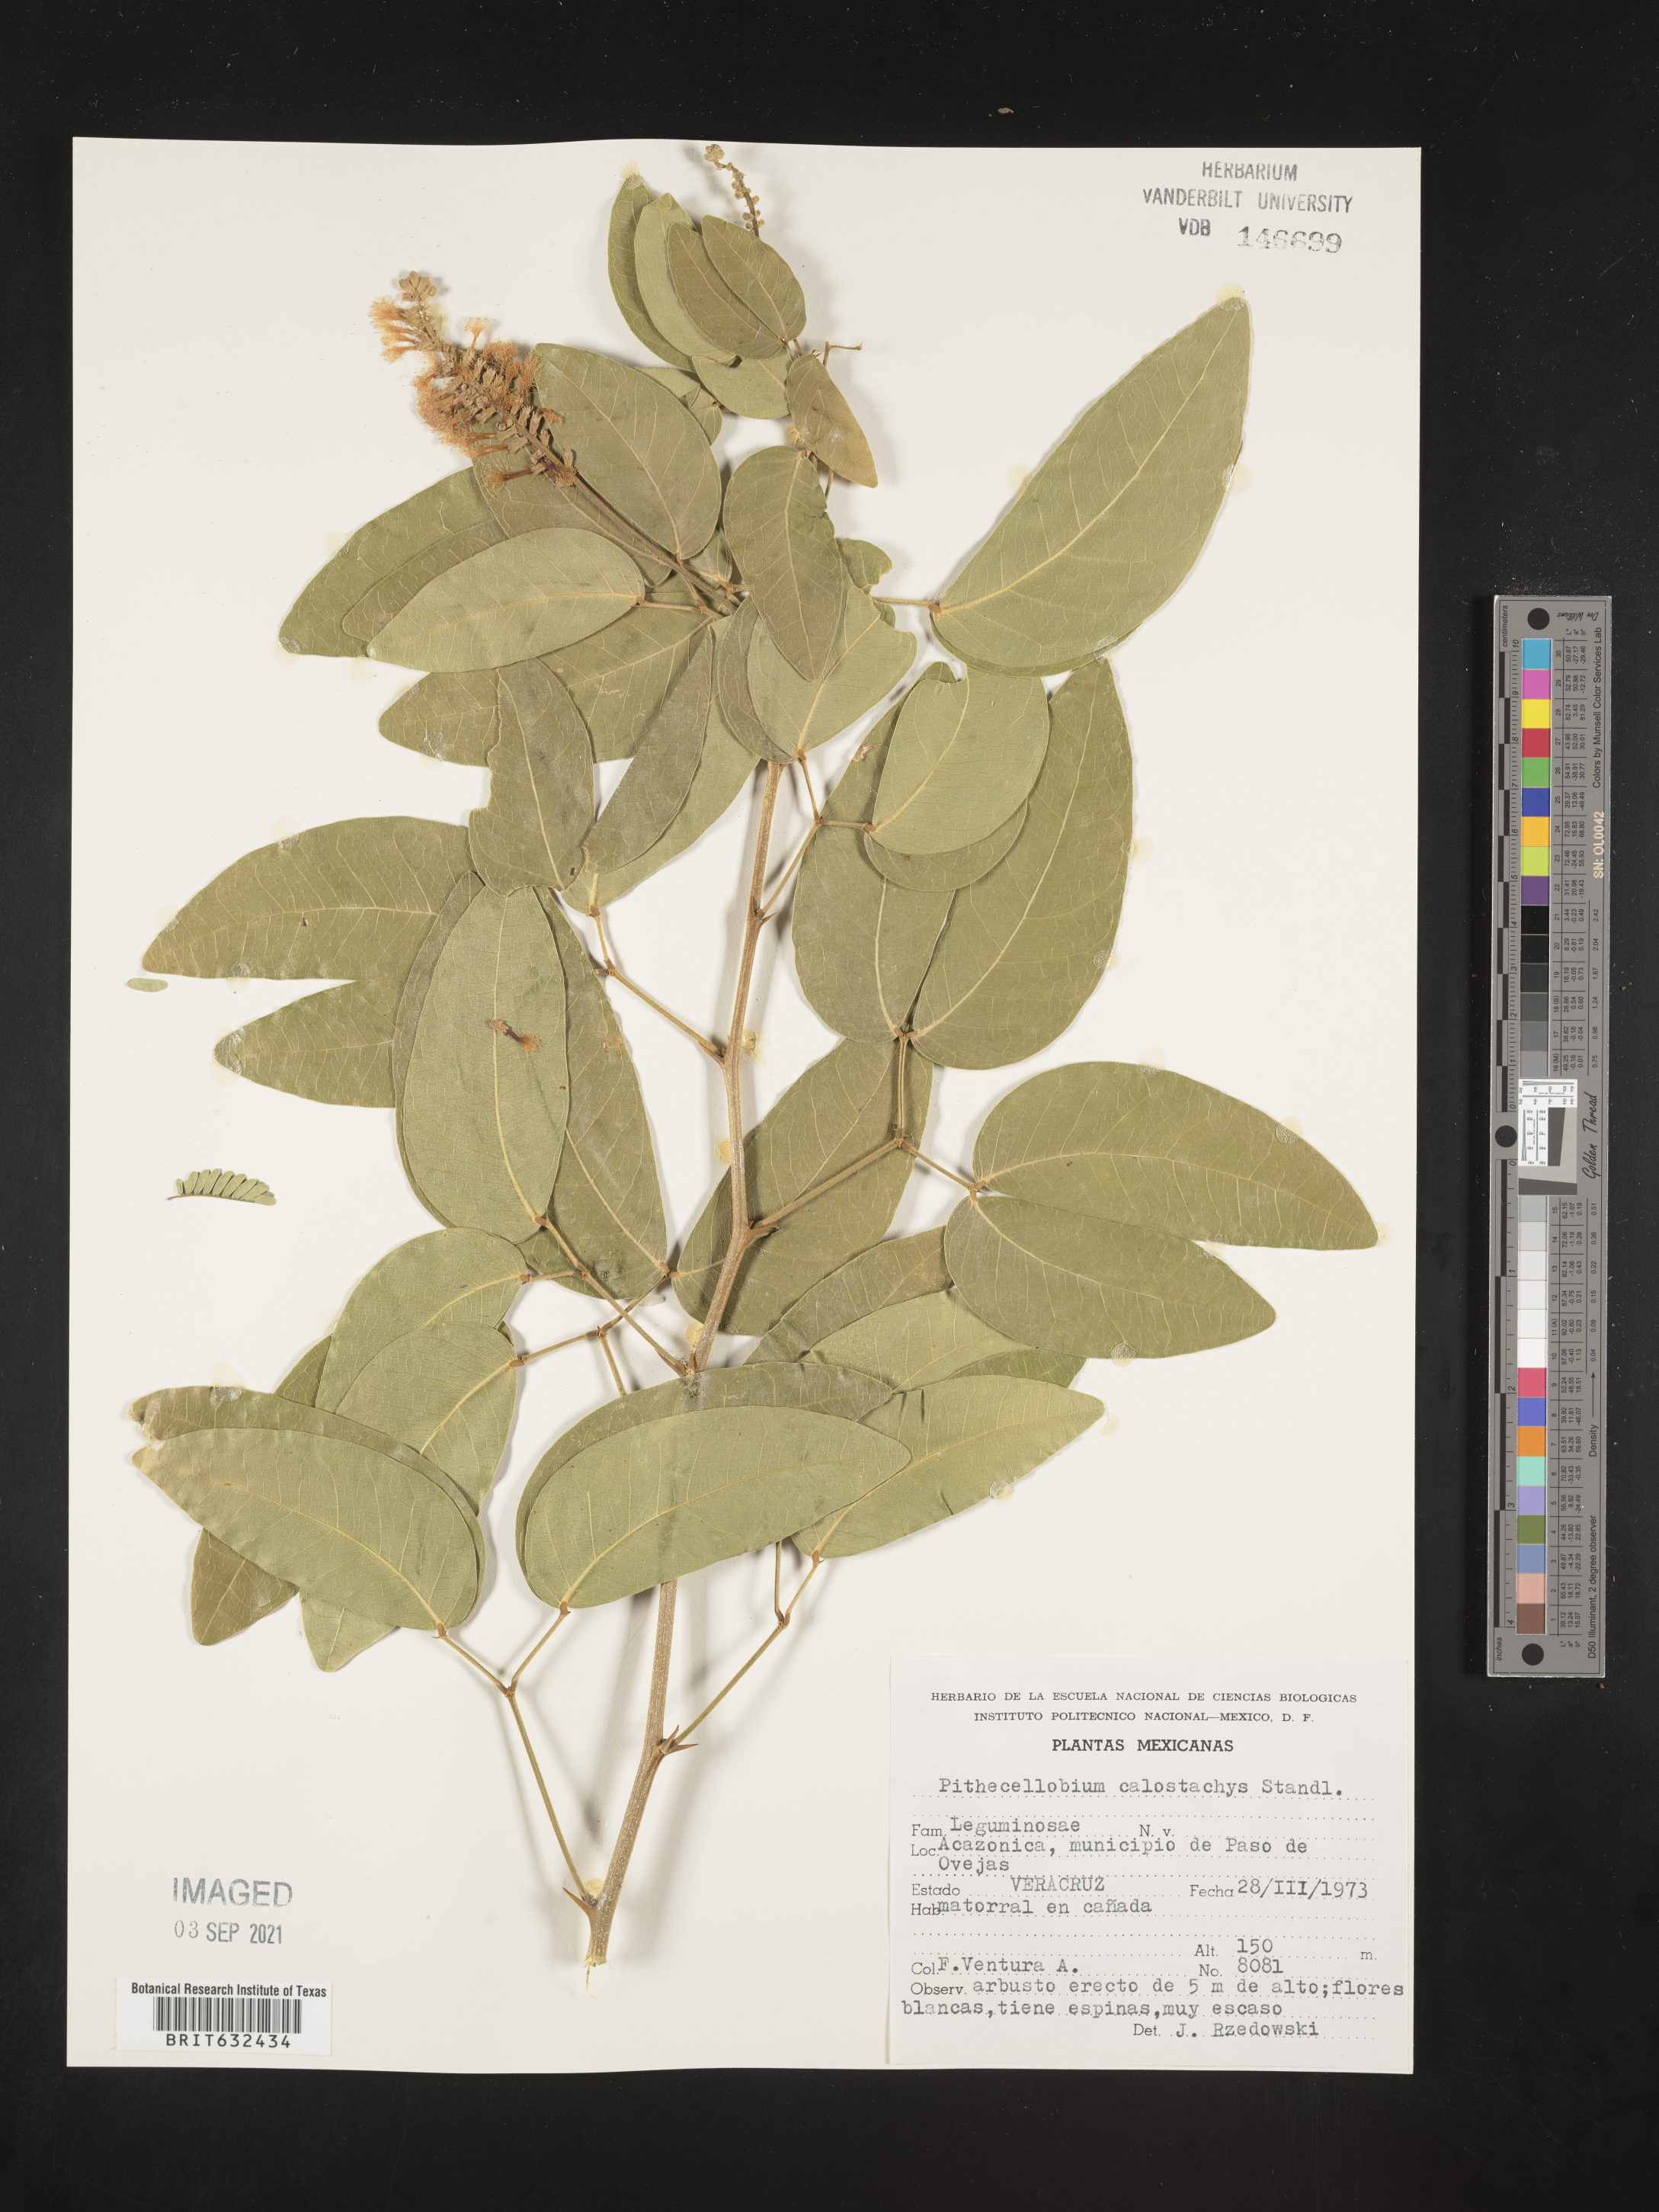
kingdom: Plantae
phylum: Tracheophyta
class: Magnoliopsida
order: Fabales
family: Fabaceae
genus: Pithecellobium
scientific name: Pithecellobium
